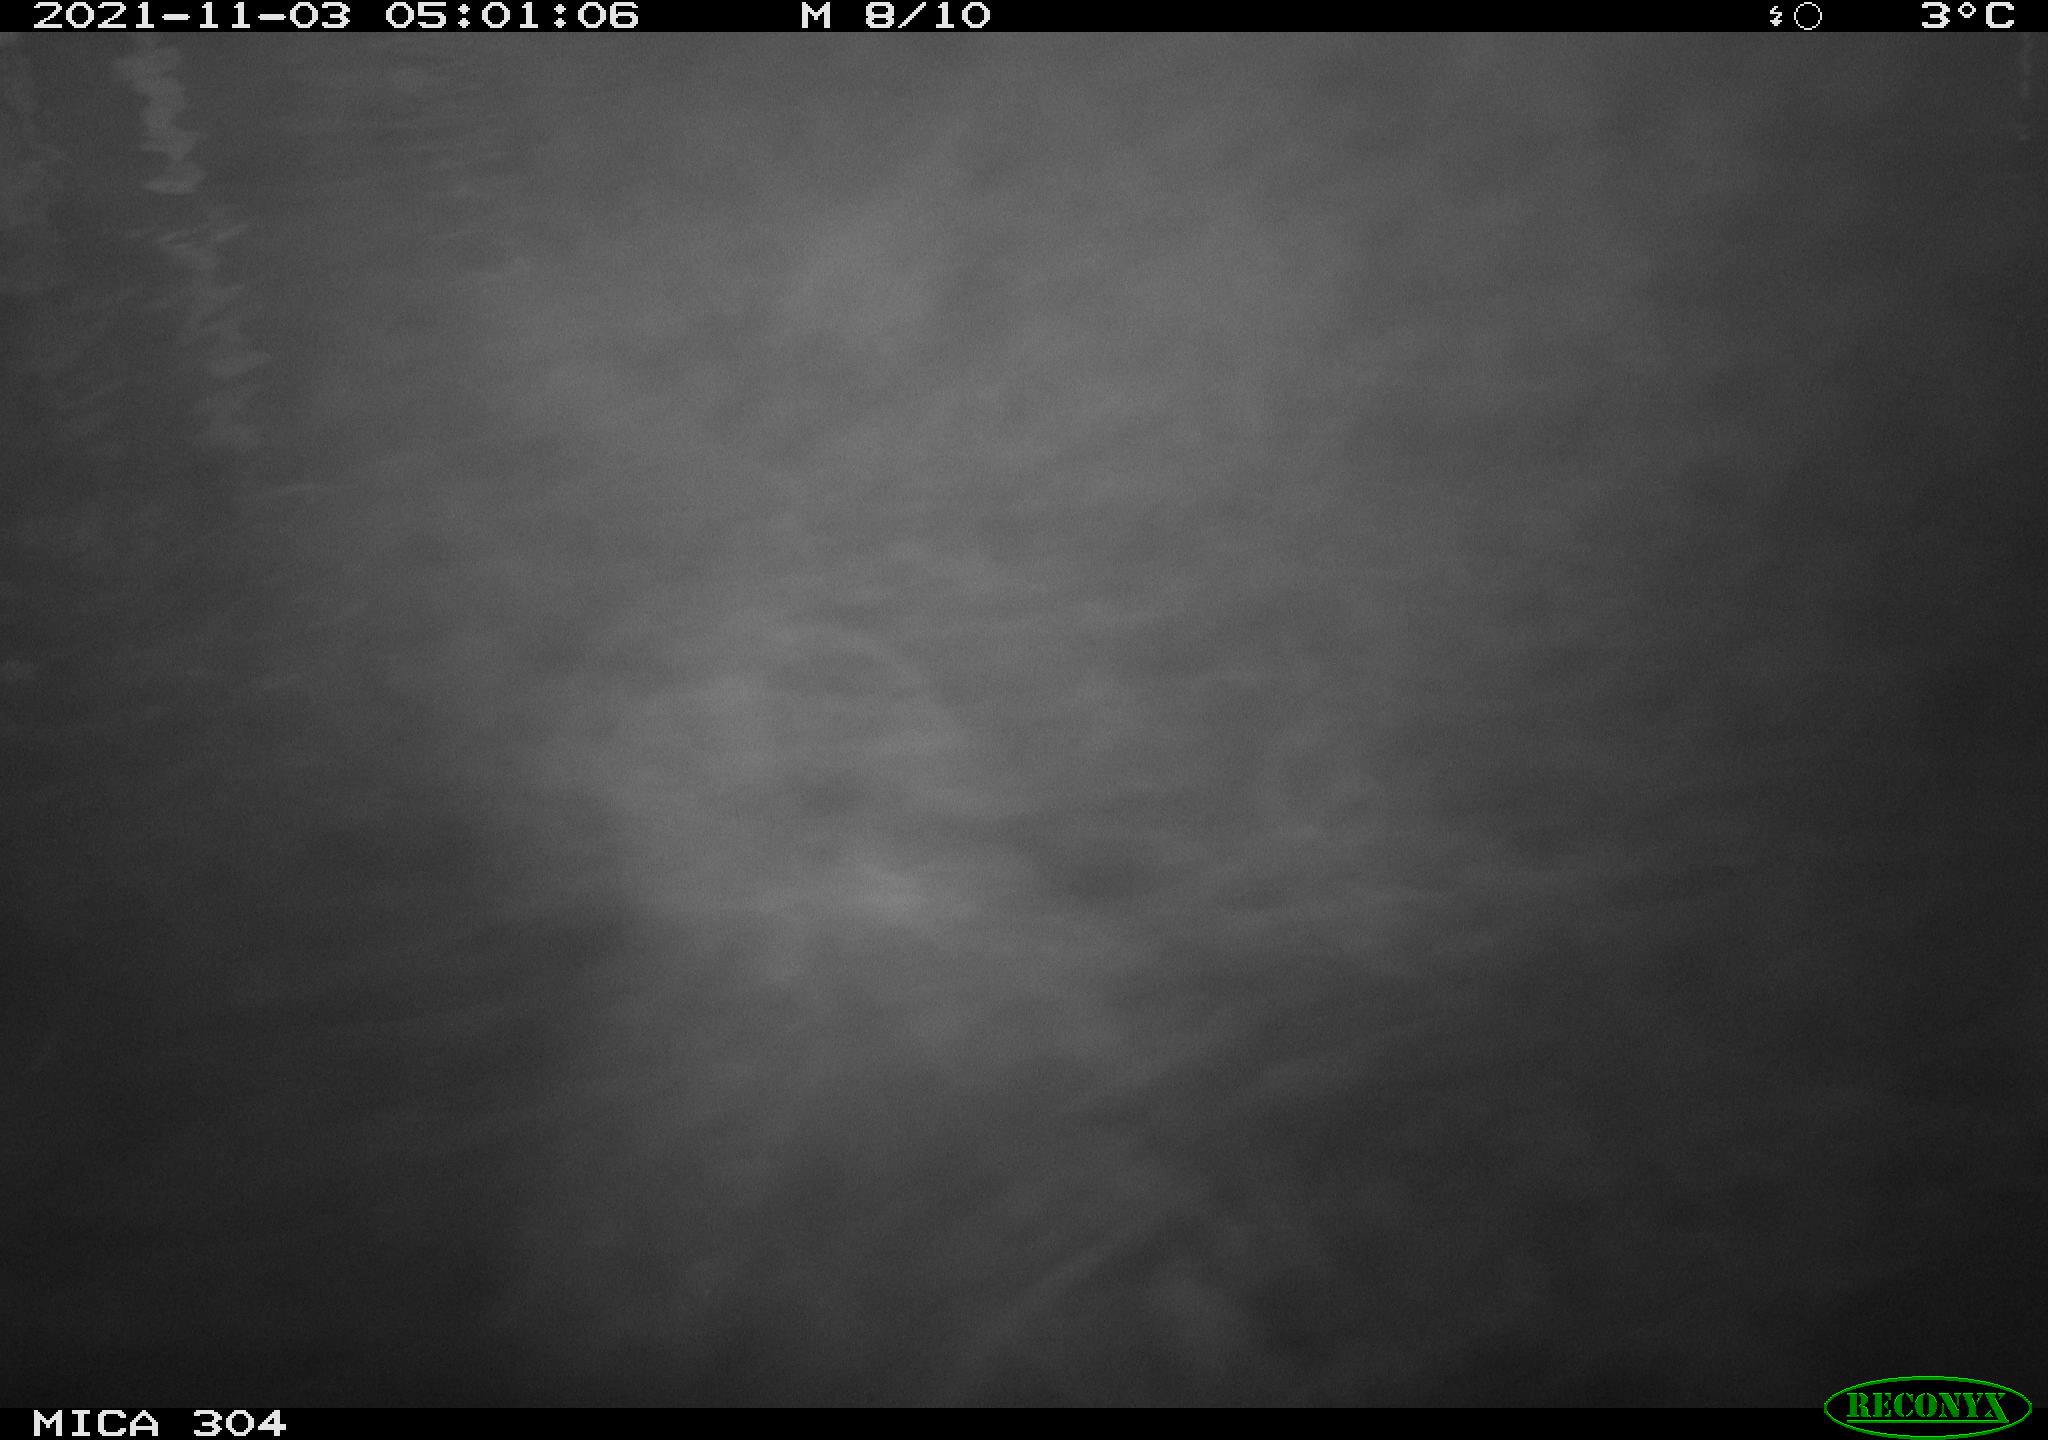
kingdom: Animalia
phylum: Chordata
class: Mammalia
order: Rodentia
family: Cricetidae
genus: Ondatra
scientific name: Ondatra zibethicus
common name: Muskrat
